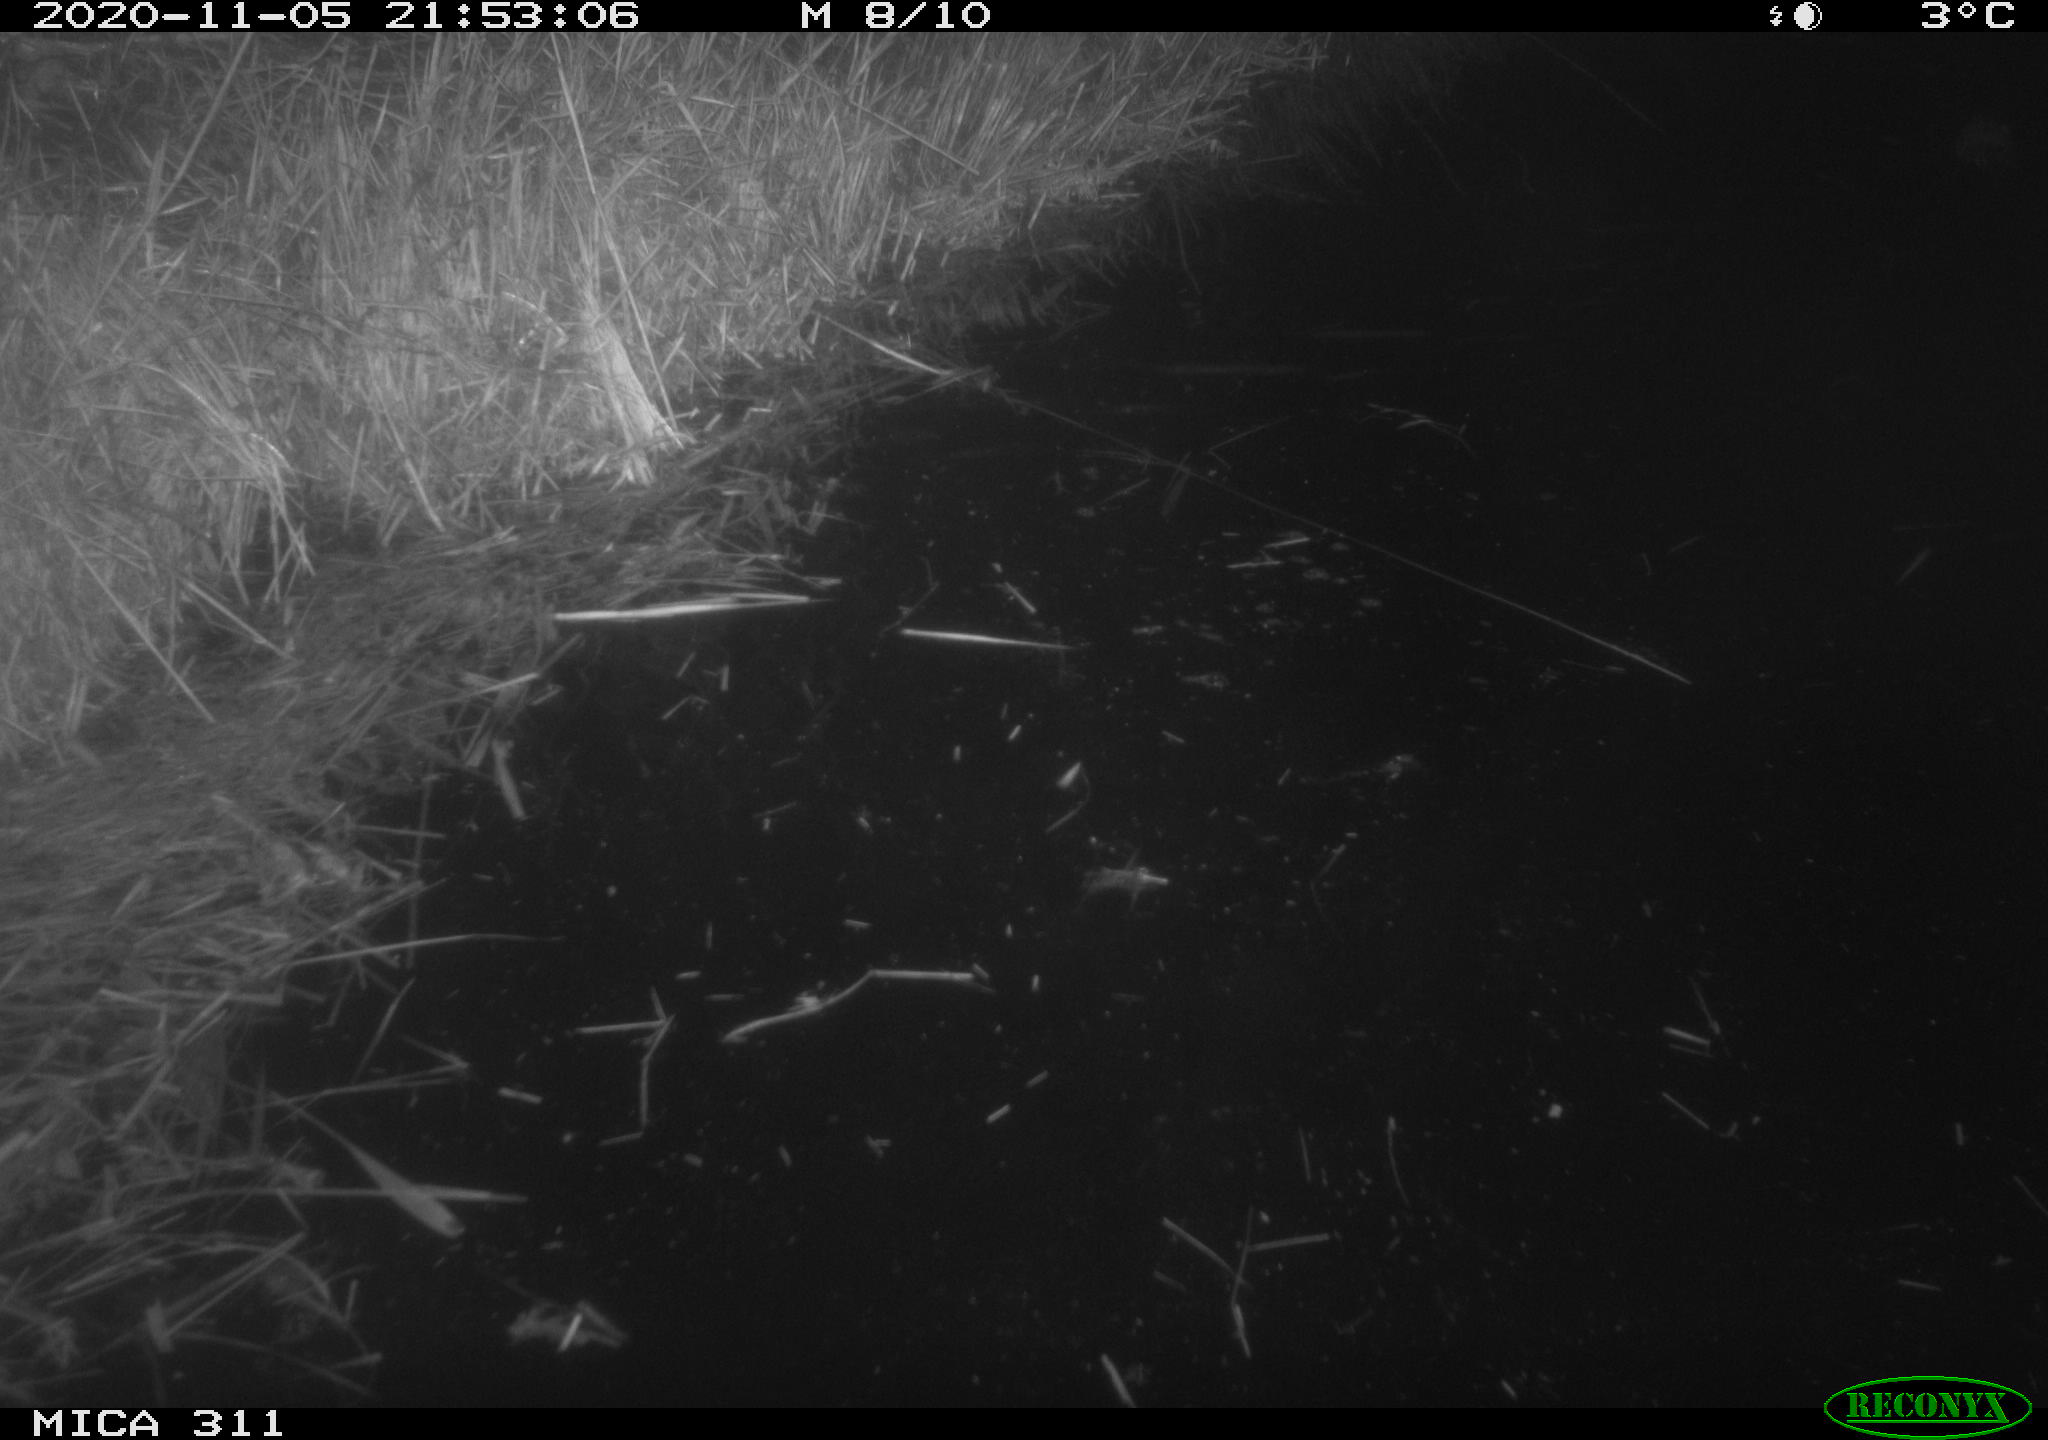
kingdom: Animalia
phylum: Chordata
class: Mammalia
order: Rodentia
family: Cricetidae
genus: Ondatra
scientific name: Ondatra zibethicus
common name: Muskrat
